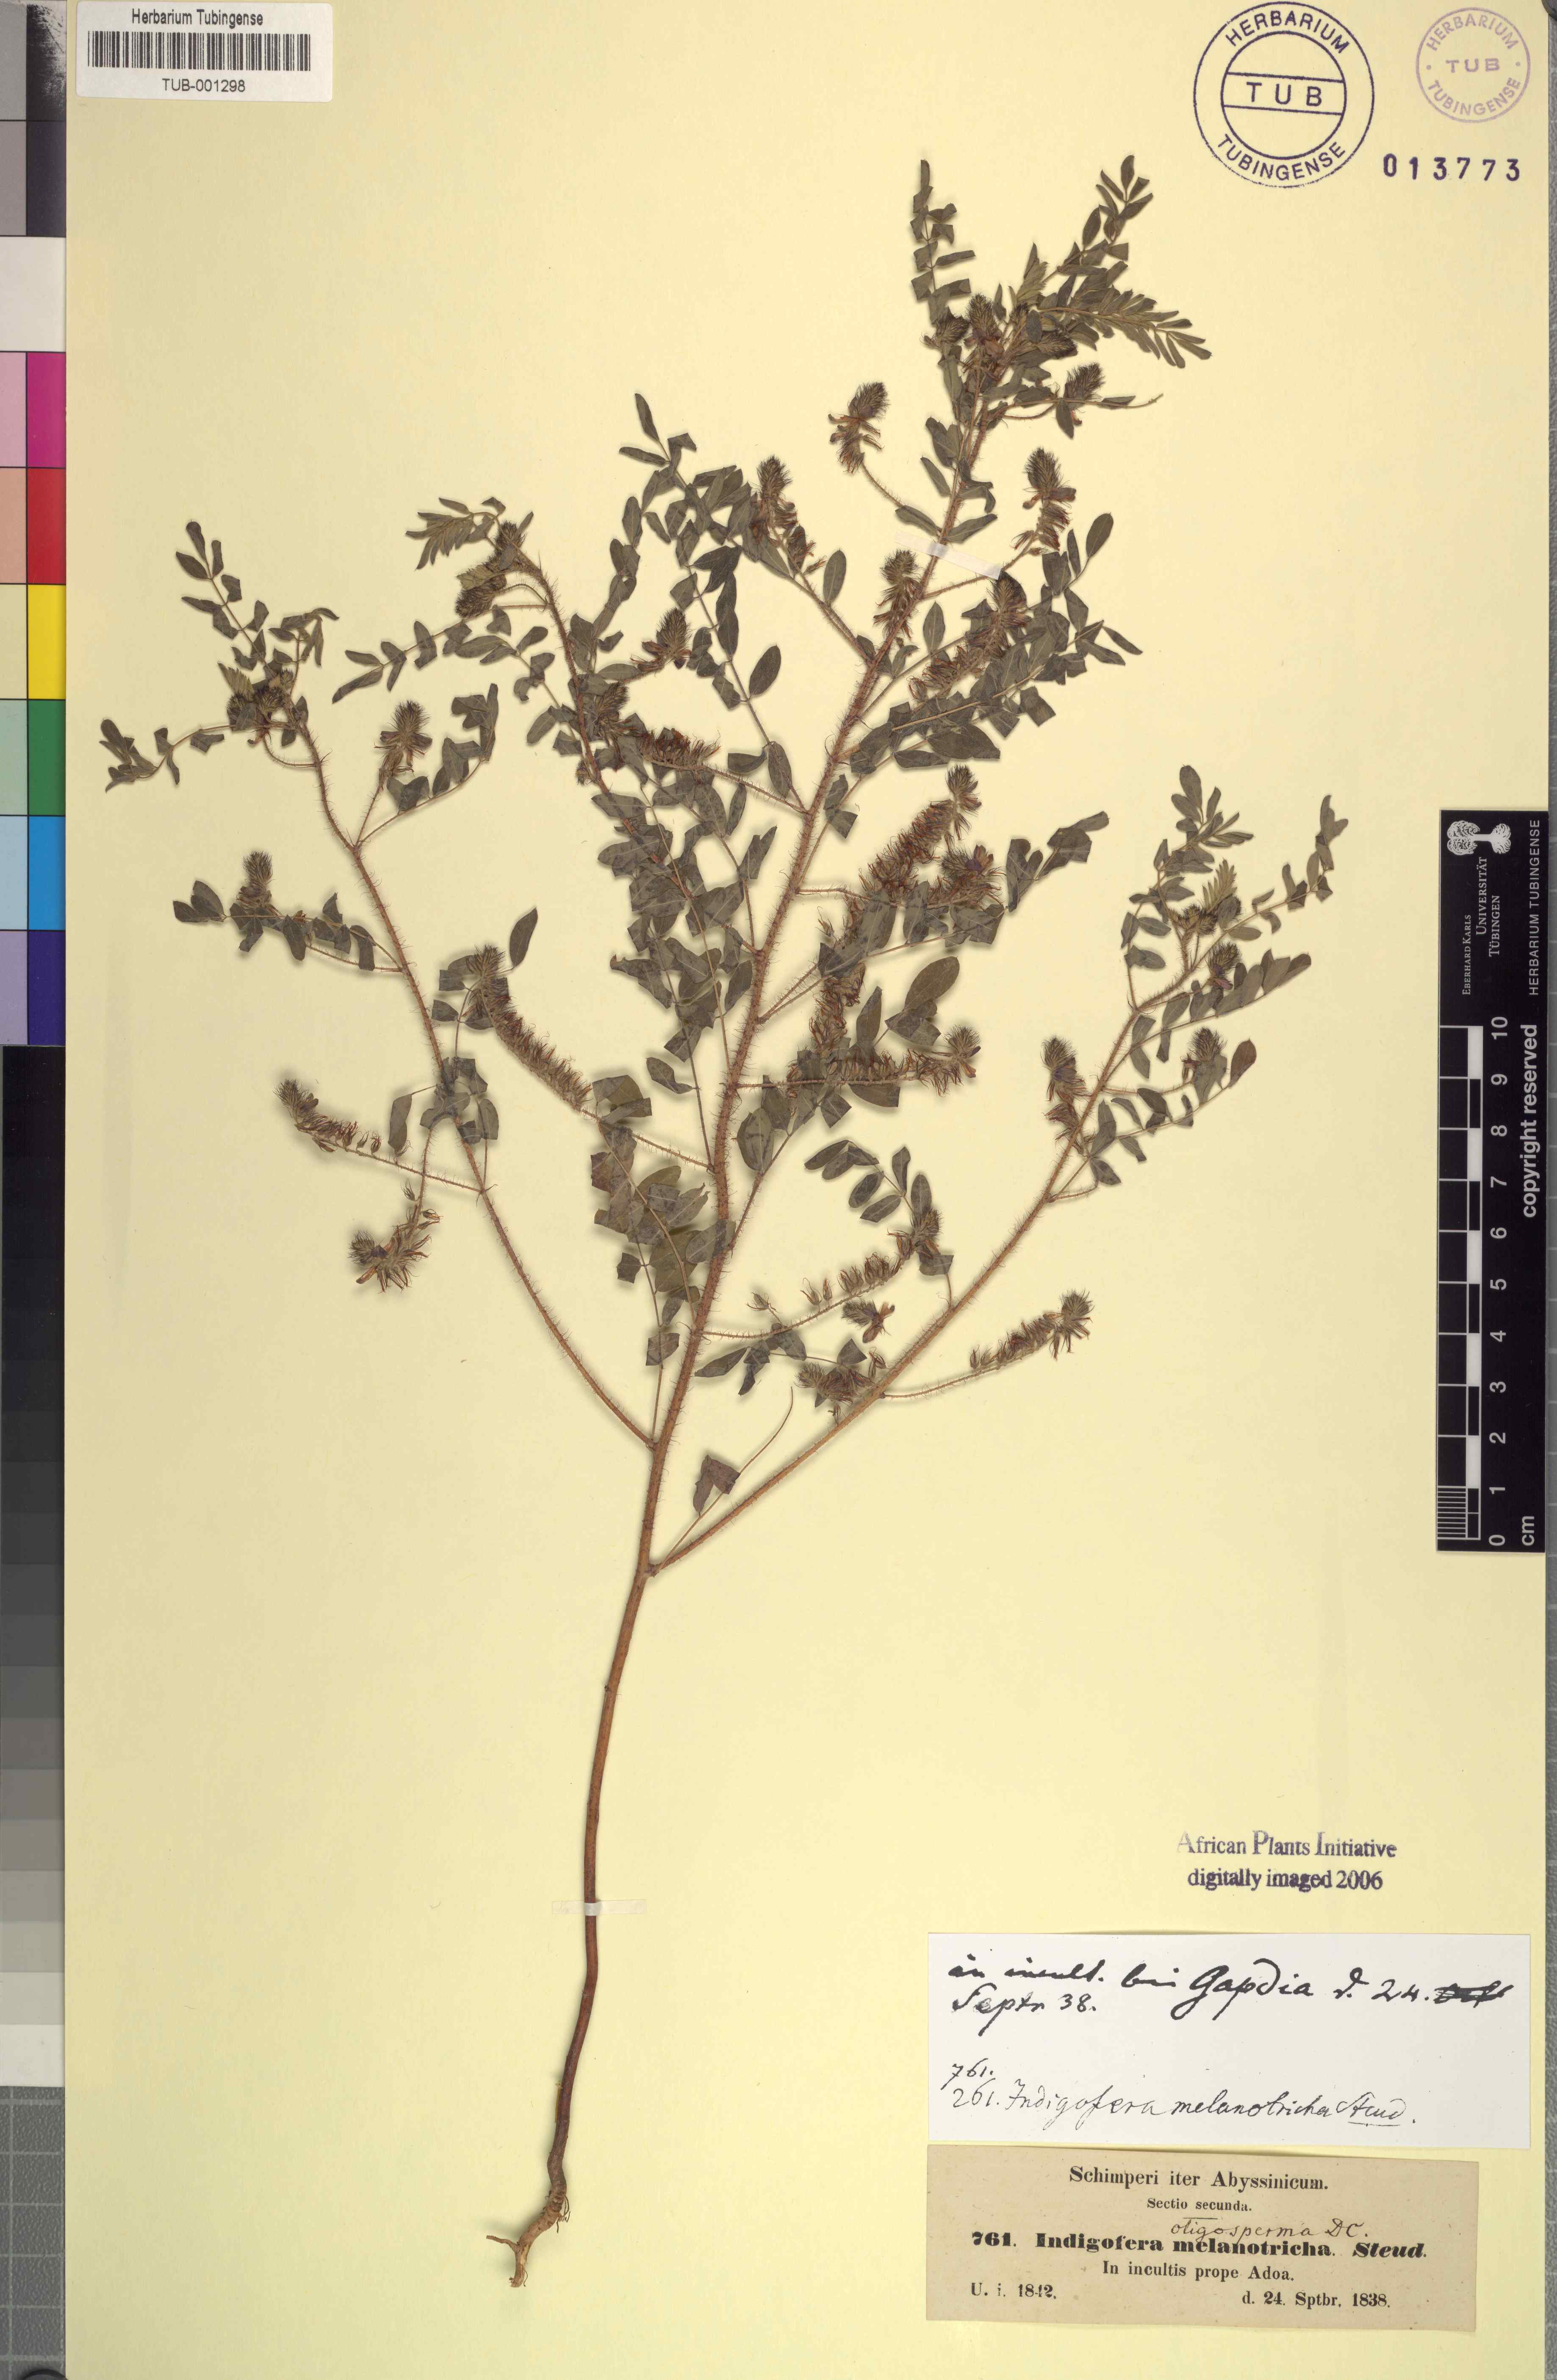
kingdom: Plantae
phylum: Tracheophyta
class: Magnoliopsida
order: Fabales
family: Fabaceae
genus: Indigofera
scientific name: Indigofera secundiflora
